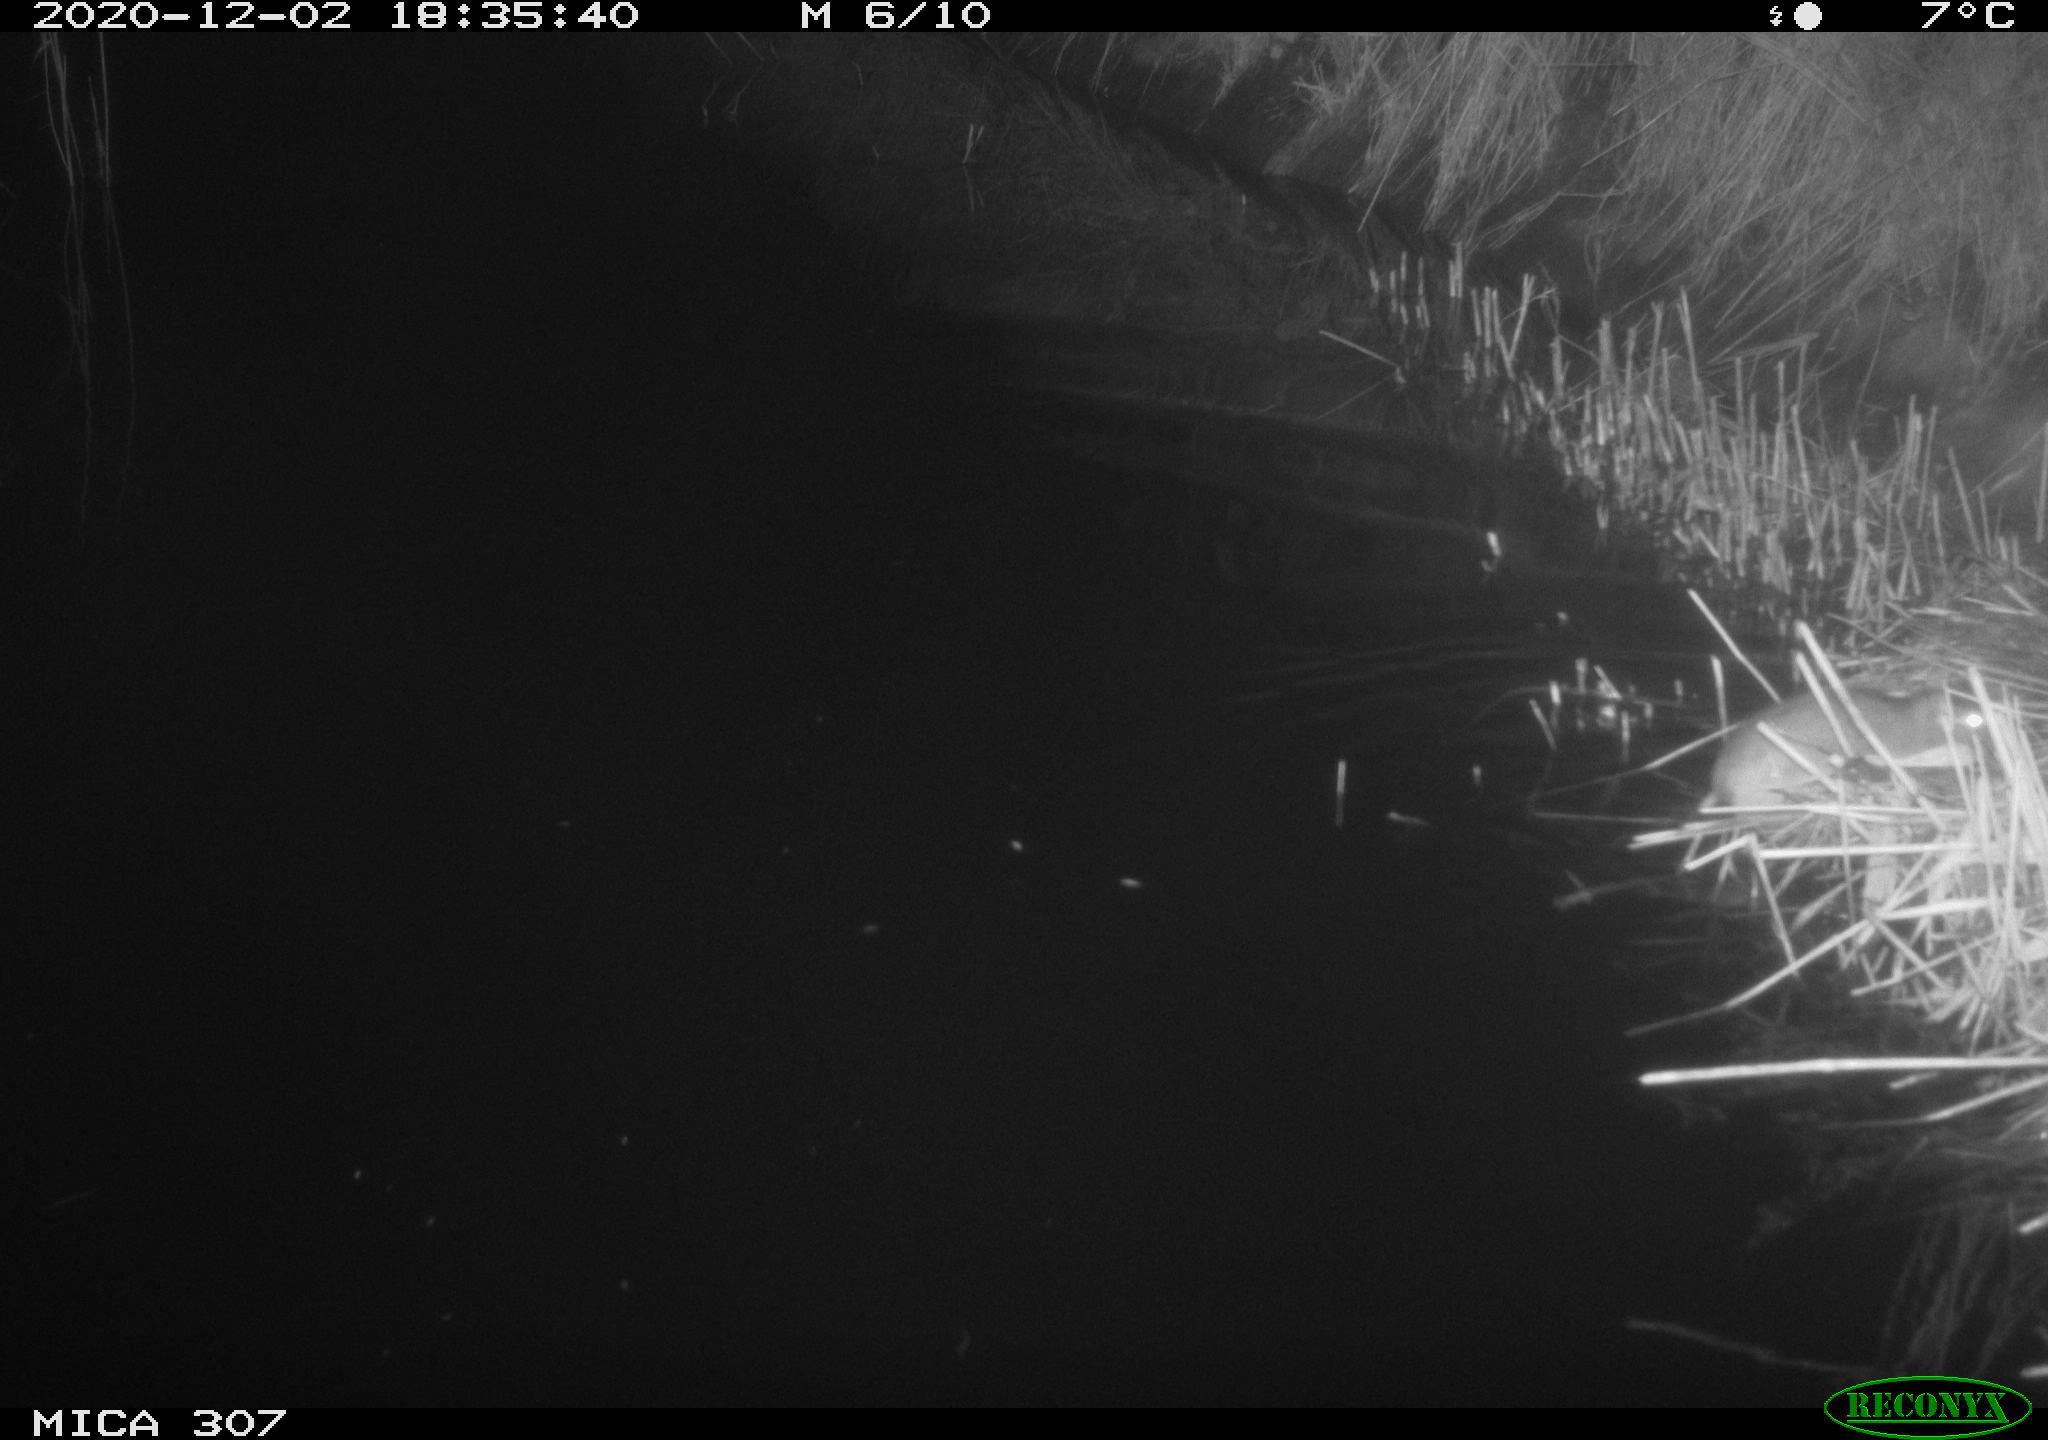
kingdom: Animalia
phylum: Chordata
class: Mammalia
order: Rodentia
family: Muridae
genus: Rattus
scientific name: Rattus norvegicus
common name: Brown rat
